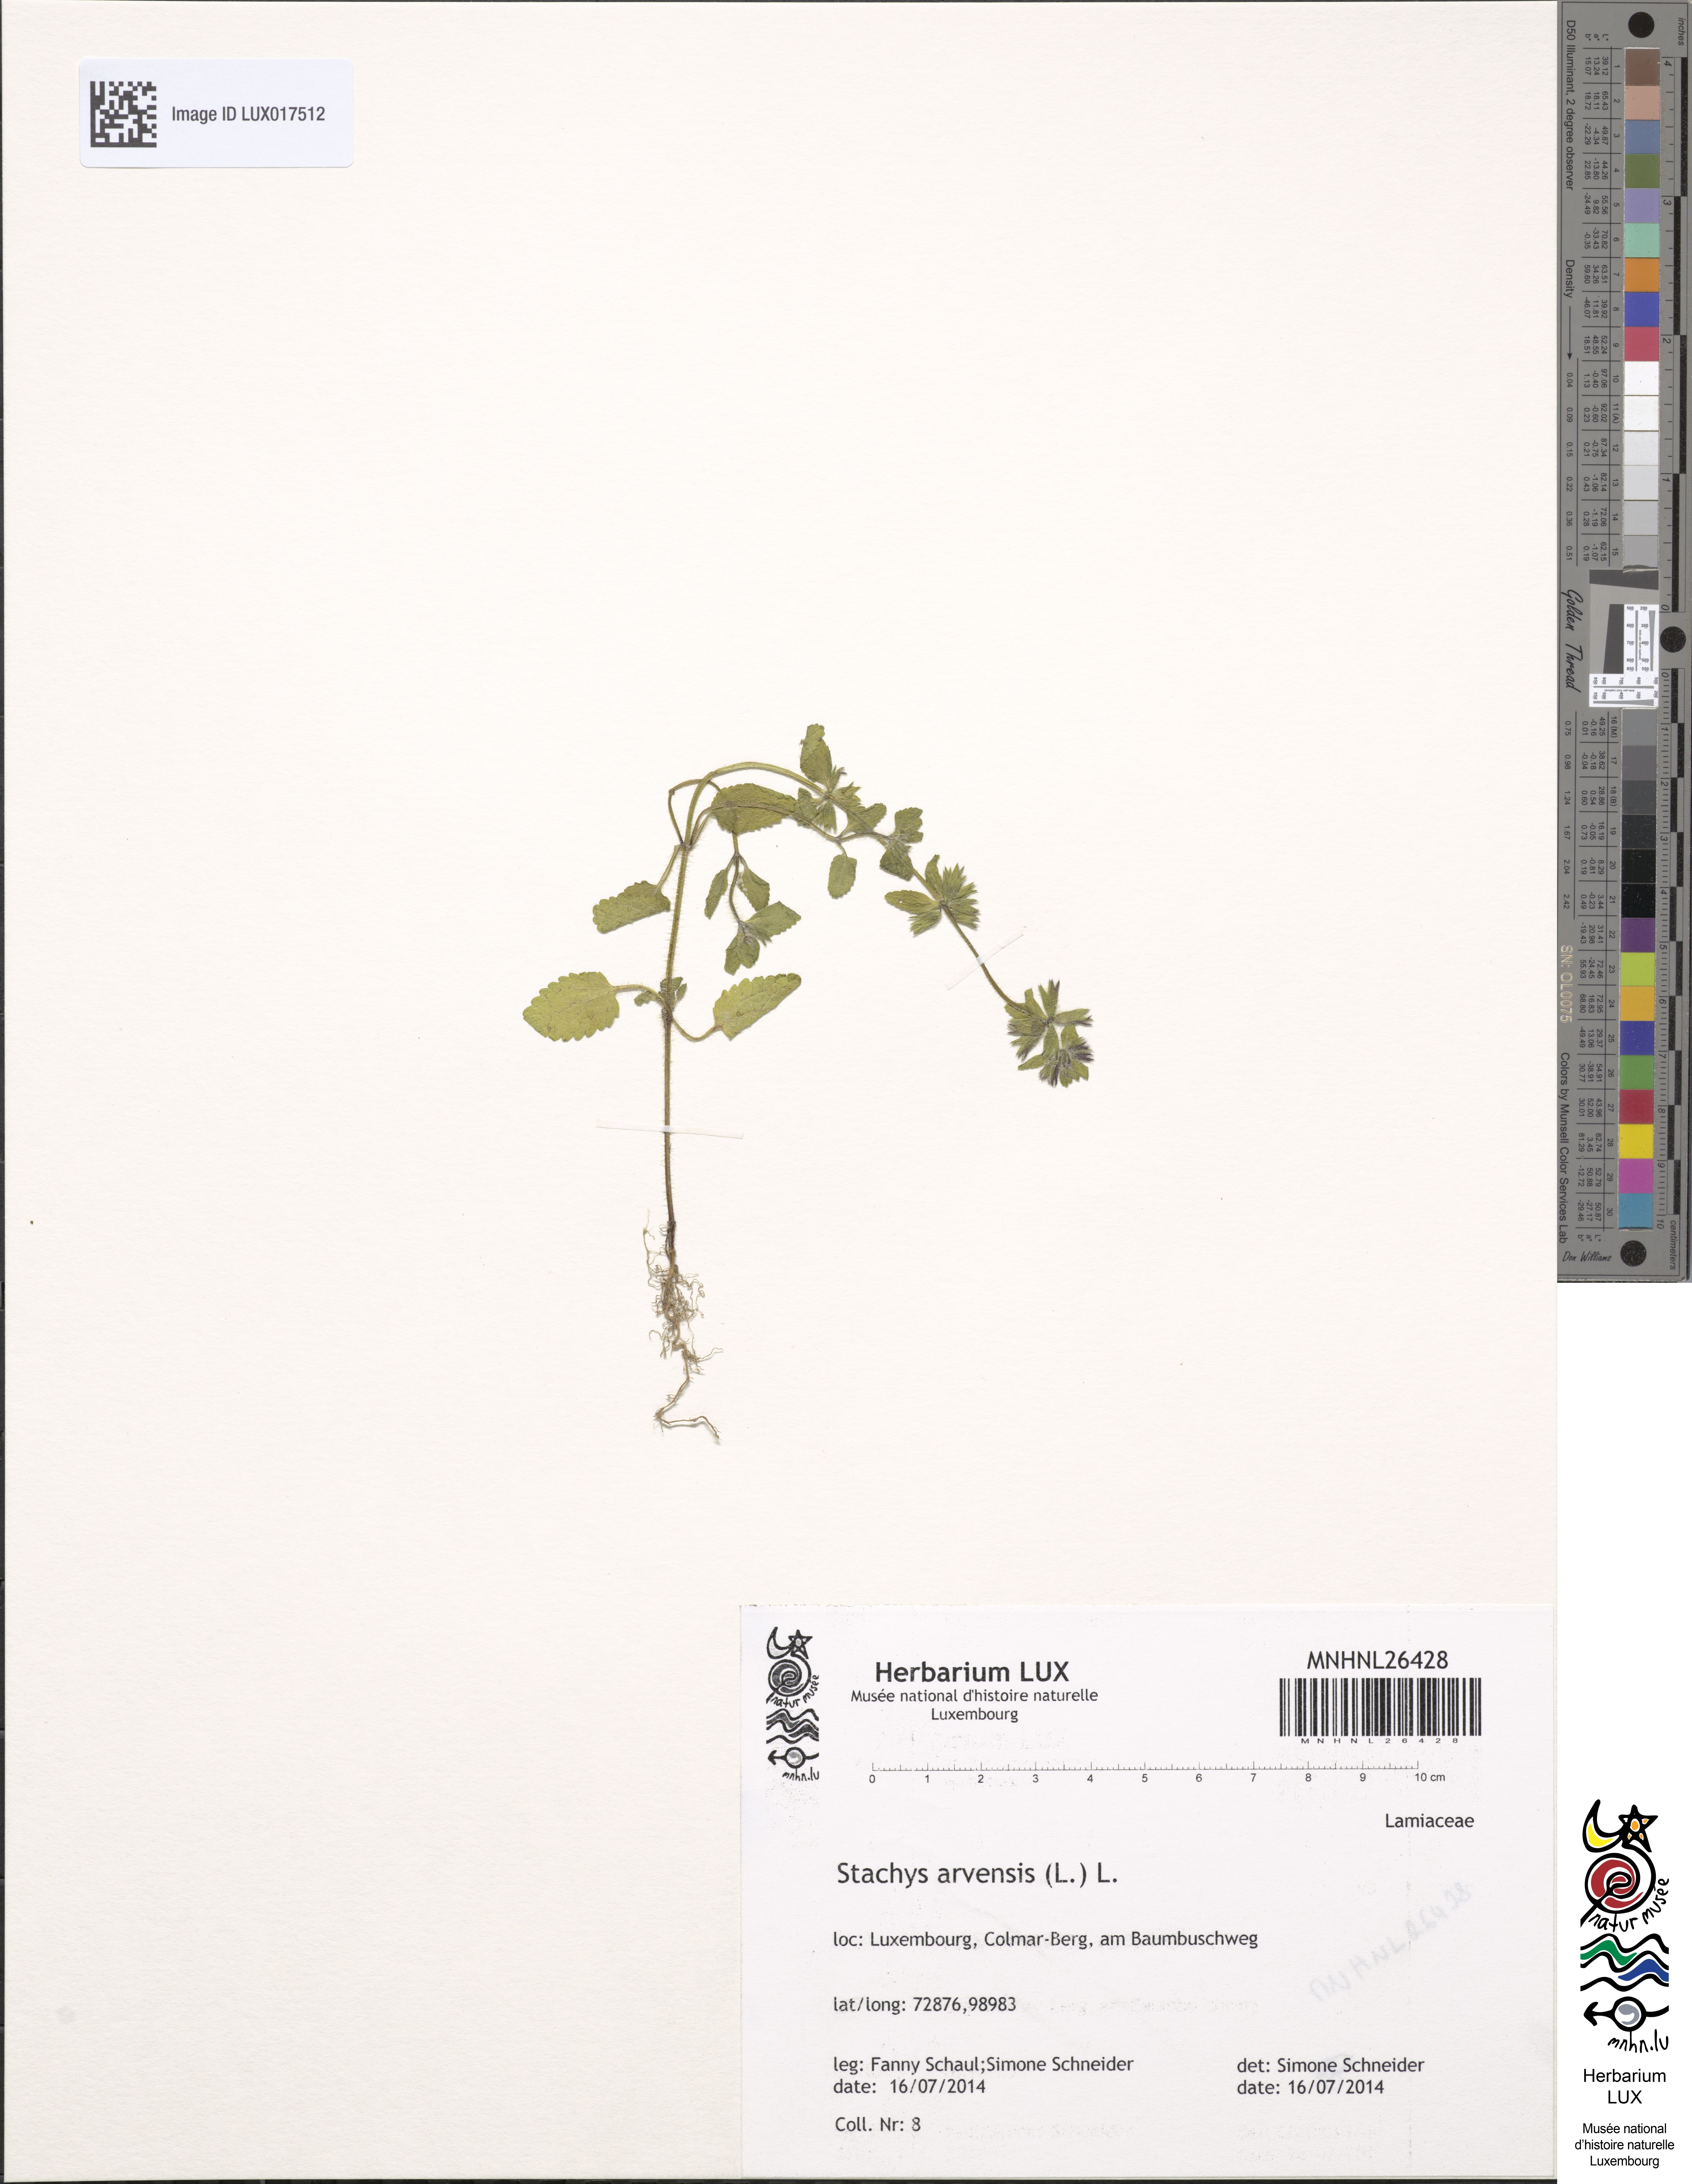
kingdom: Plantae
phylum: Tracheophyta
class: Magnoliopsida
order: Lamiales
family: Lamiaceae
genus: Stachys
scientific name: Stachys arvensis
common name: Field woundwort
